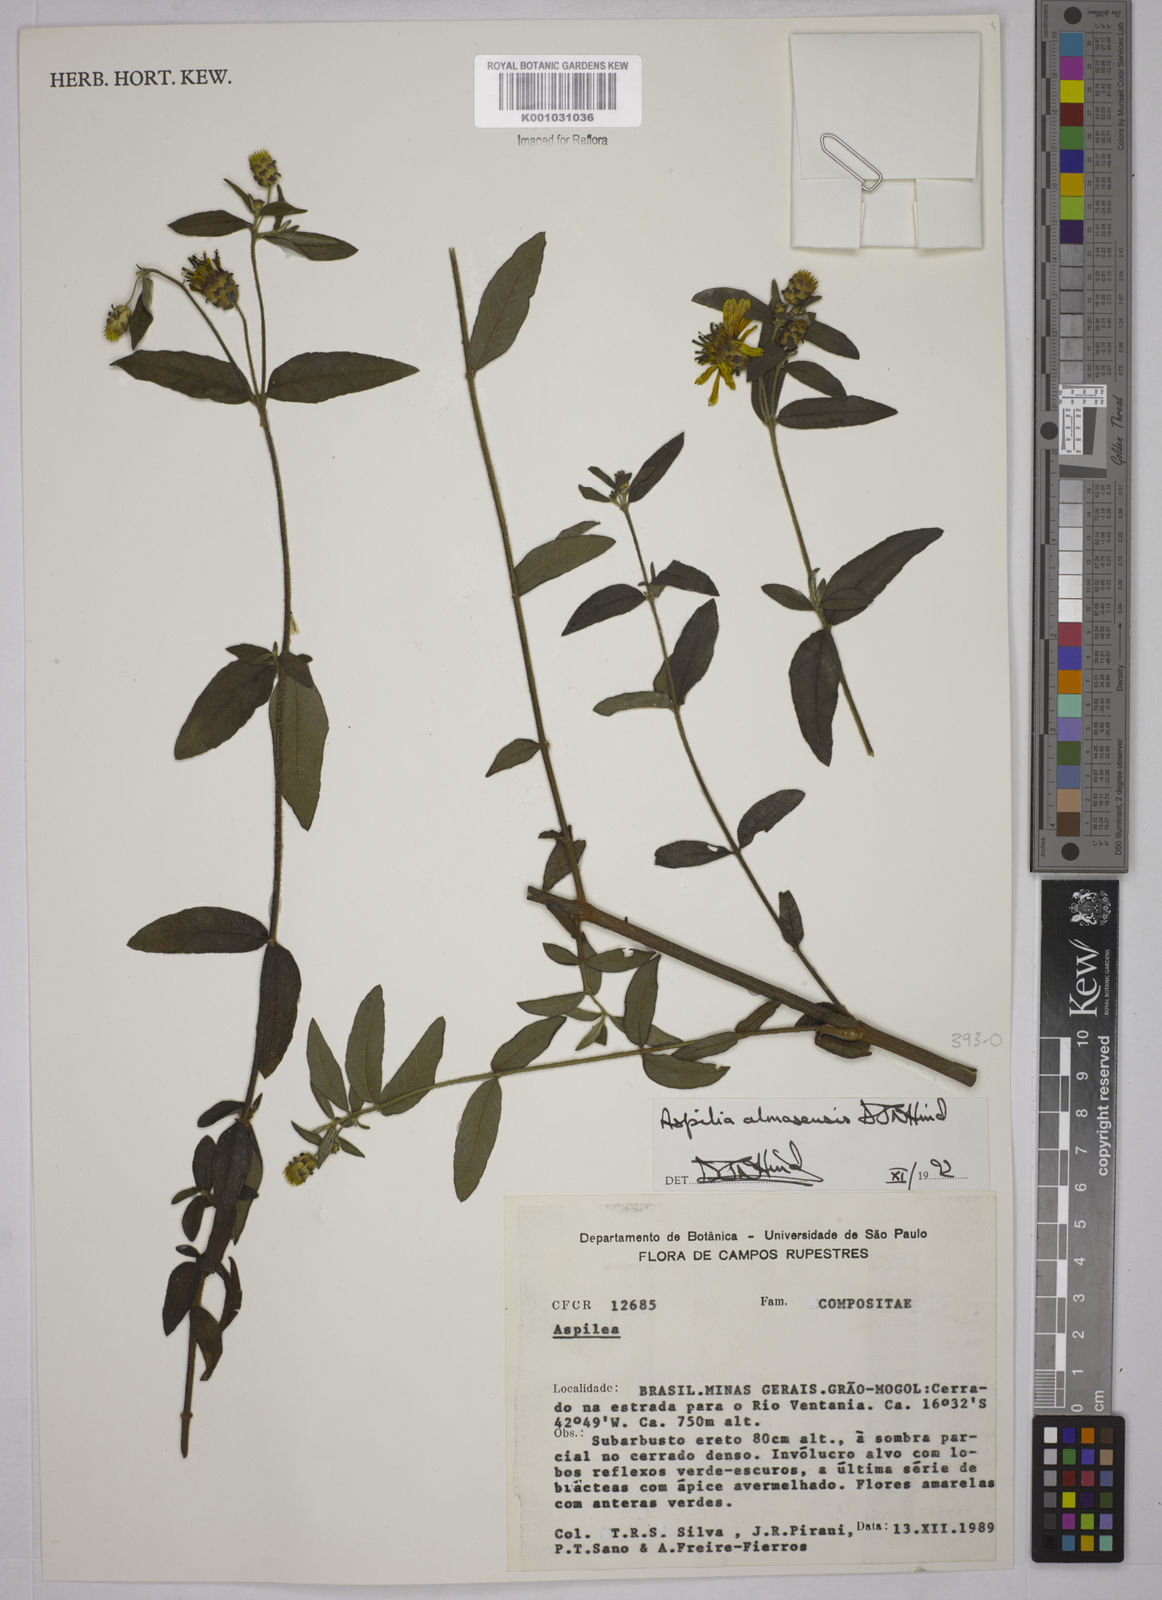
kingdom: Plantae
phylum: Tracheophyta
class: Magnoliopsida
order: Asterales
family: Asteraceae
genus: Aspilia
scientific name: Aspilia almasensis
